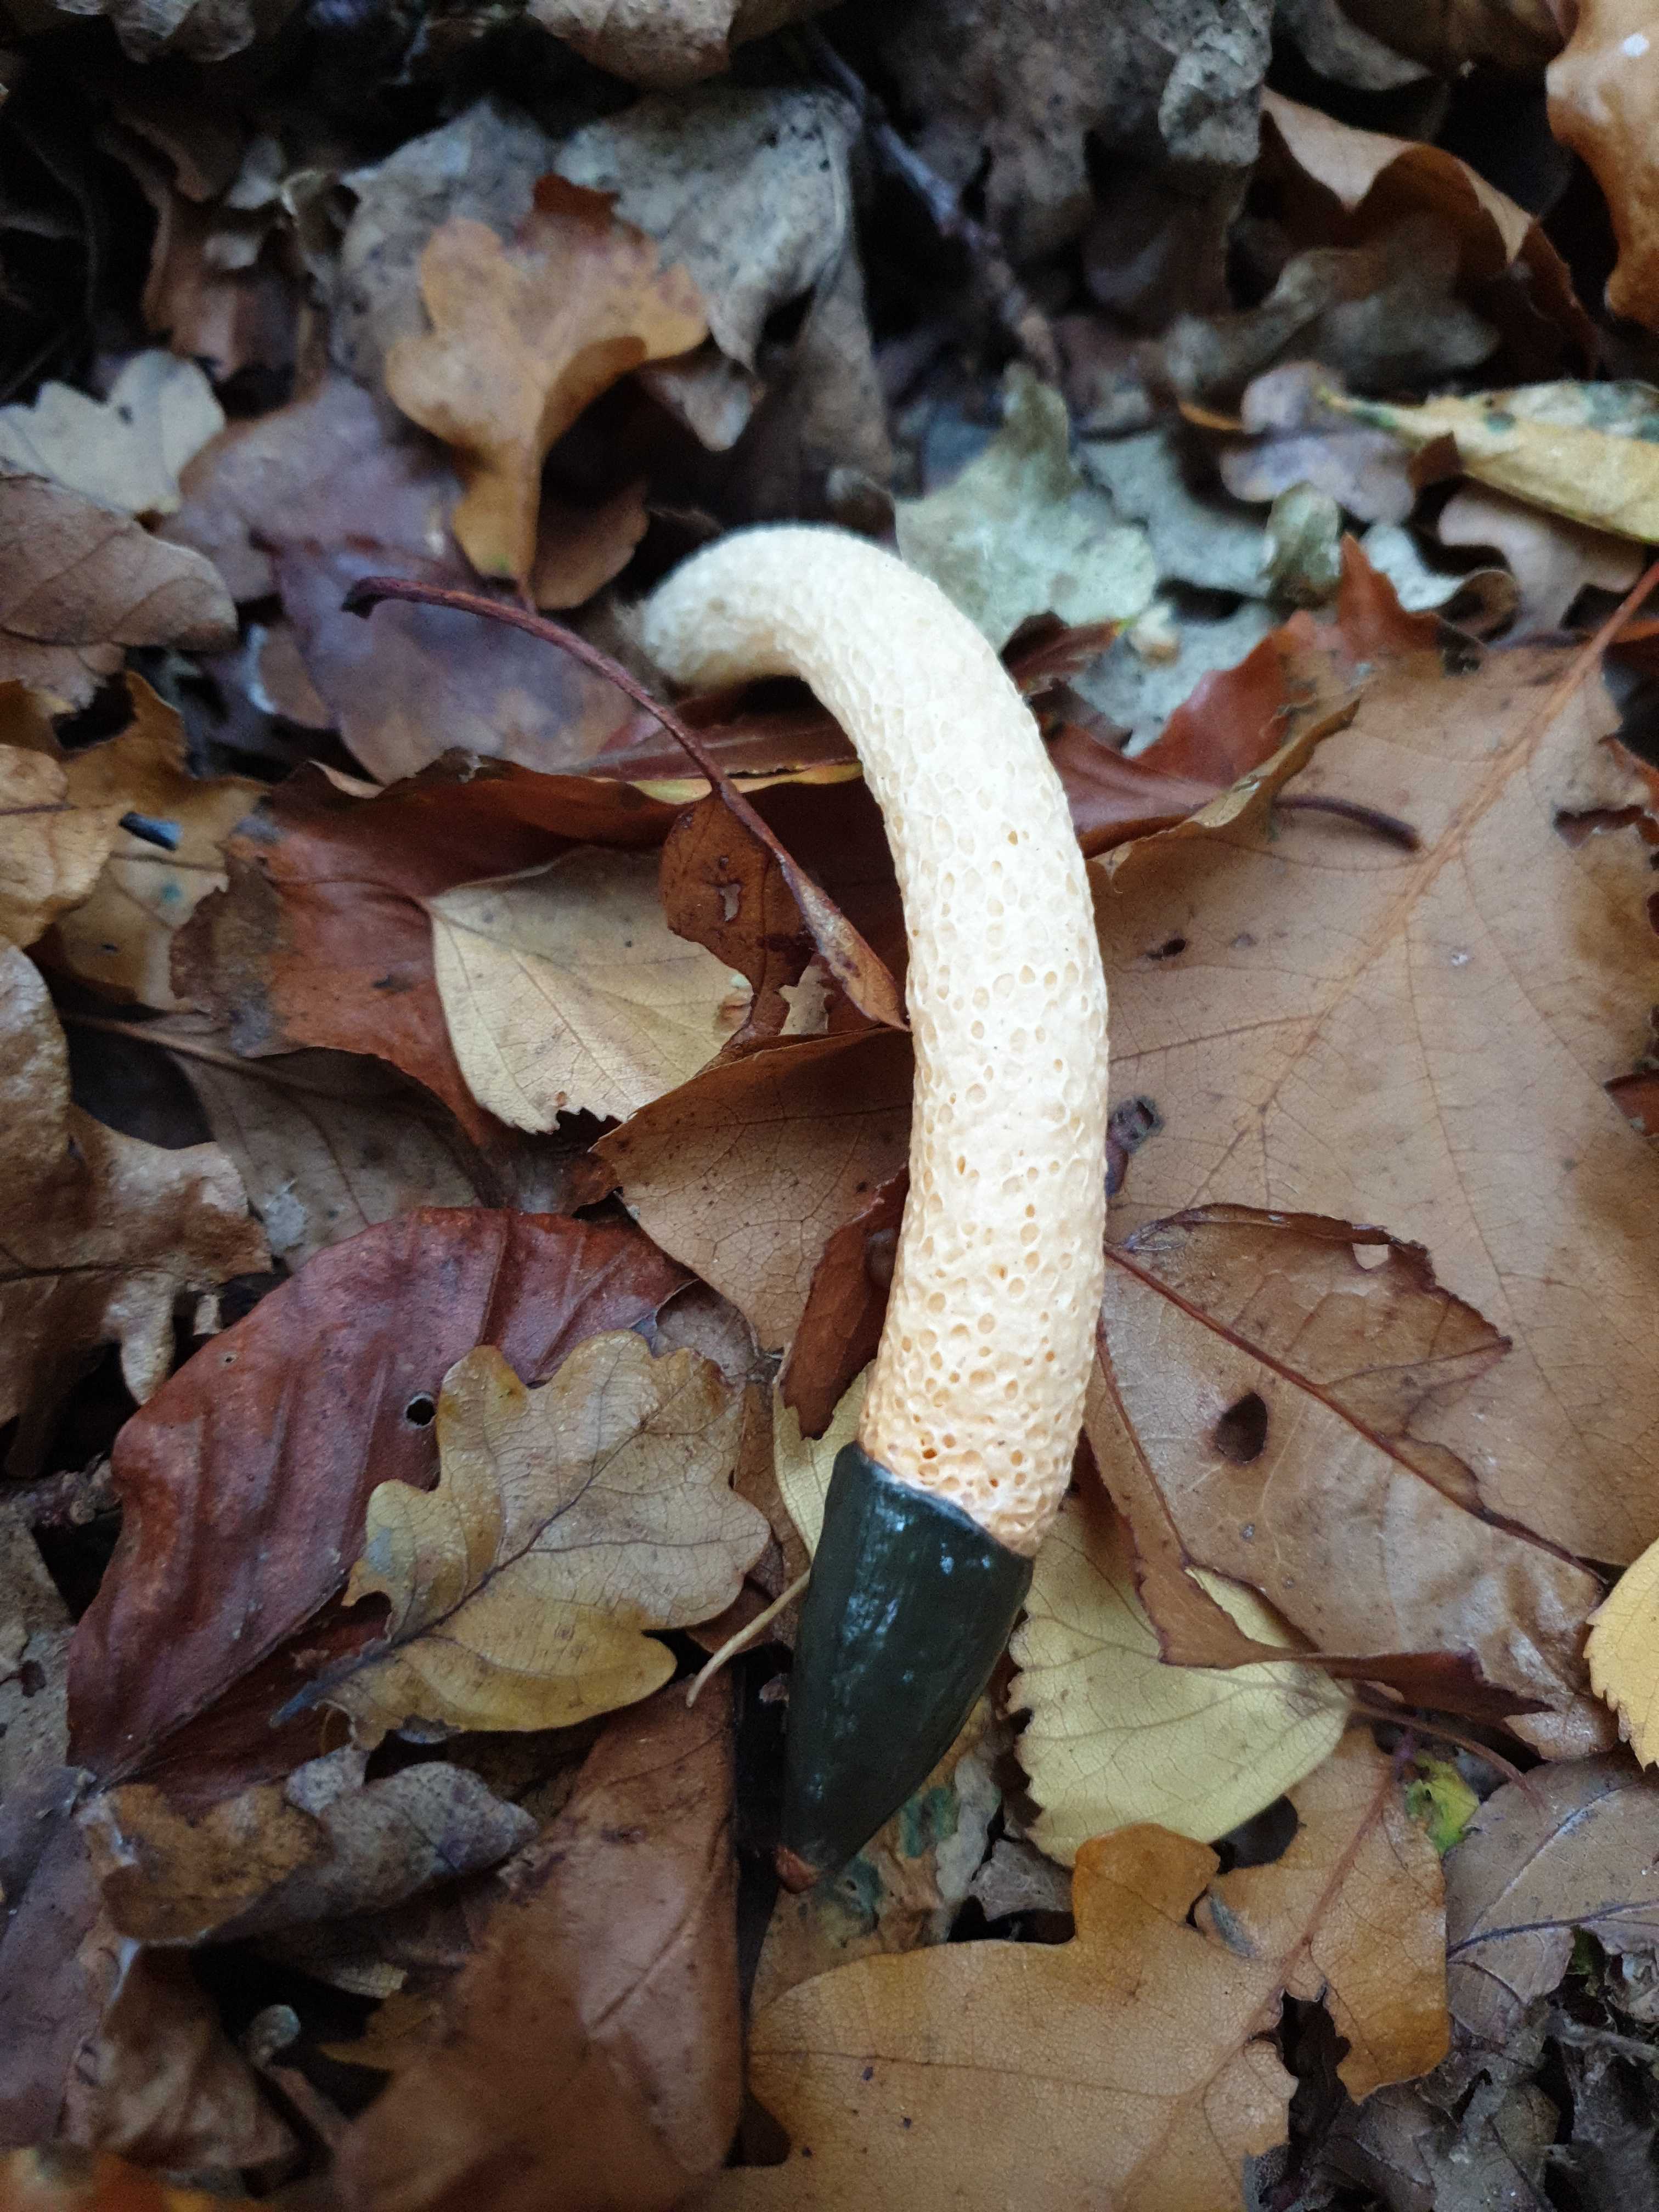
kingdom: Fungi
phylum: Basidiomycota
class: Agaricomycetes
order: Phallales
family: Phallaceae
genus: Mutinus
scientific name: Mutinus caninus
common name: hunde-stinksvamp
